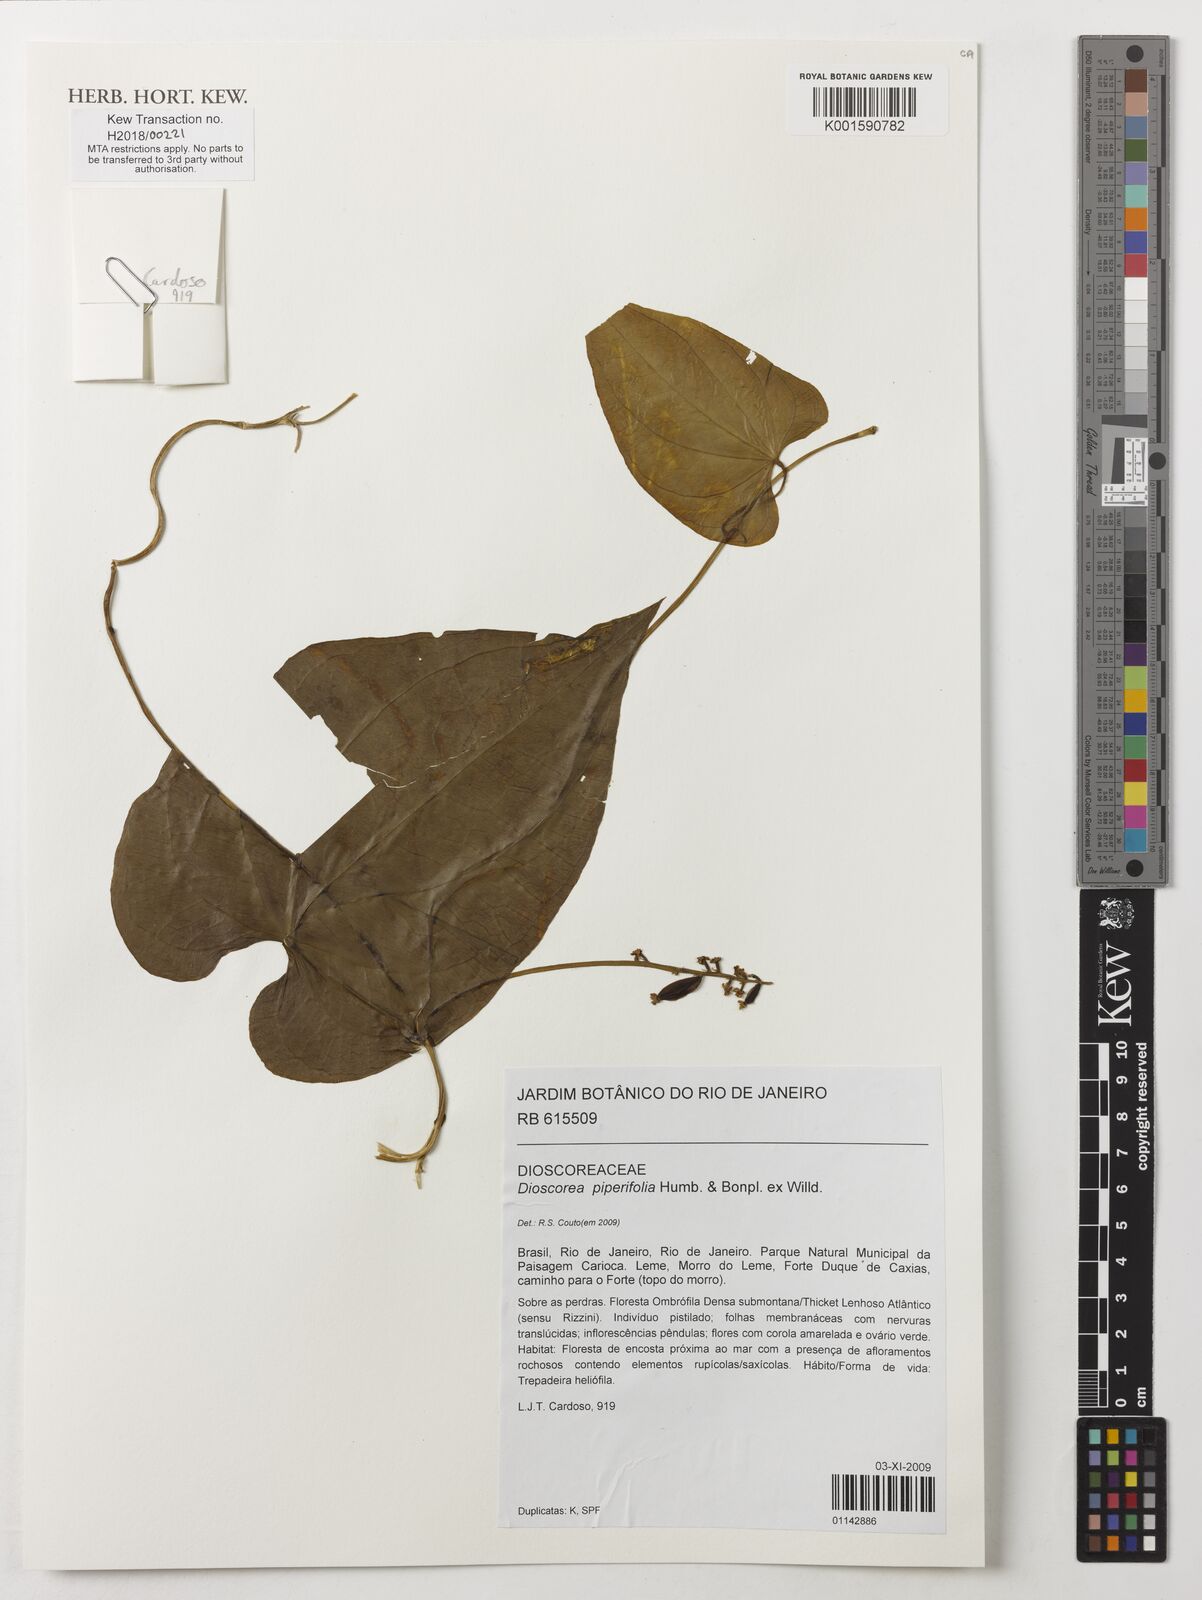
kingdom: Plantae
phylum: Tracheophyta
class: Liliopsida
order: Dioscoreales
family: Dioscoreaceae
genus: Dioscorea
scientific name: Dioscorea piperifolia
